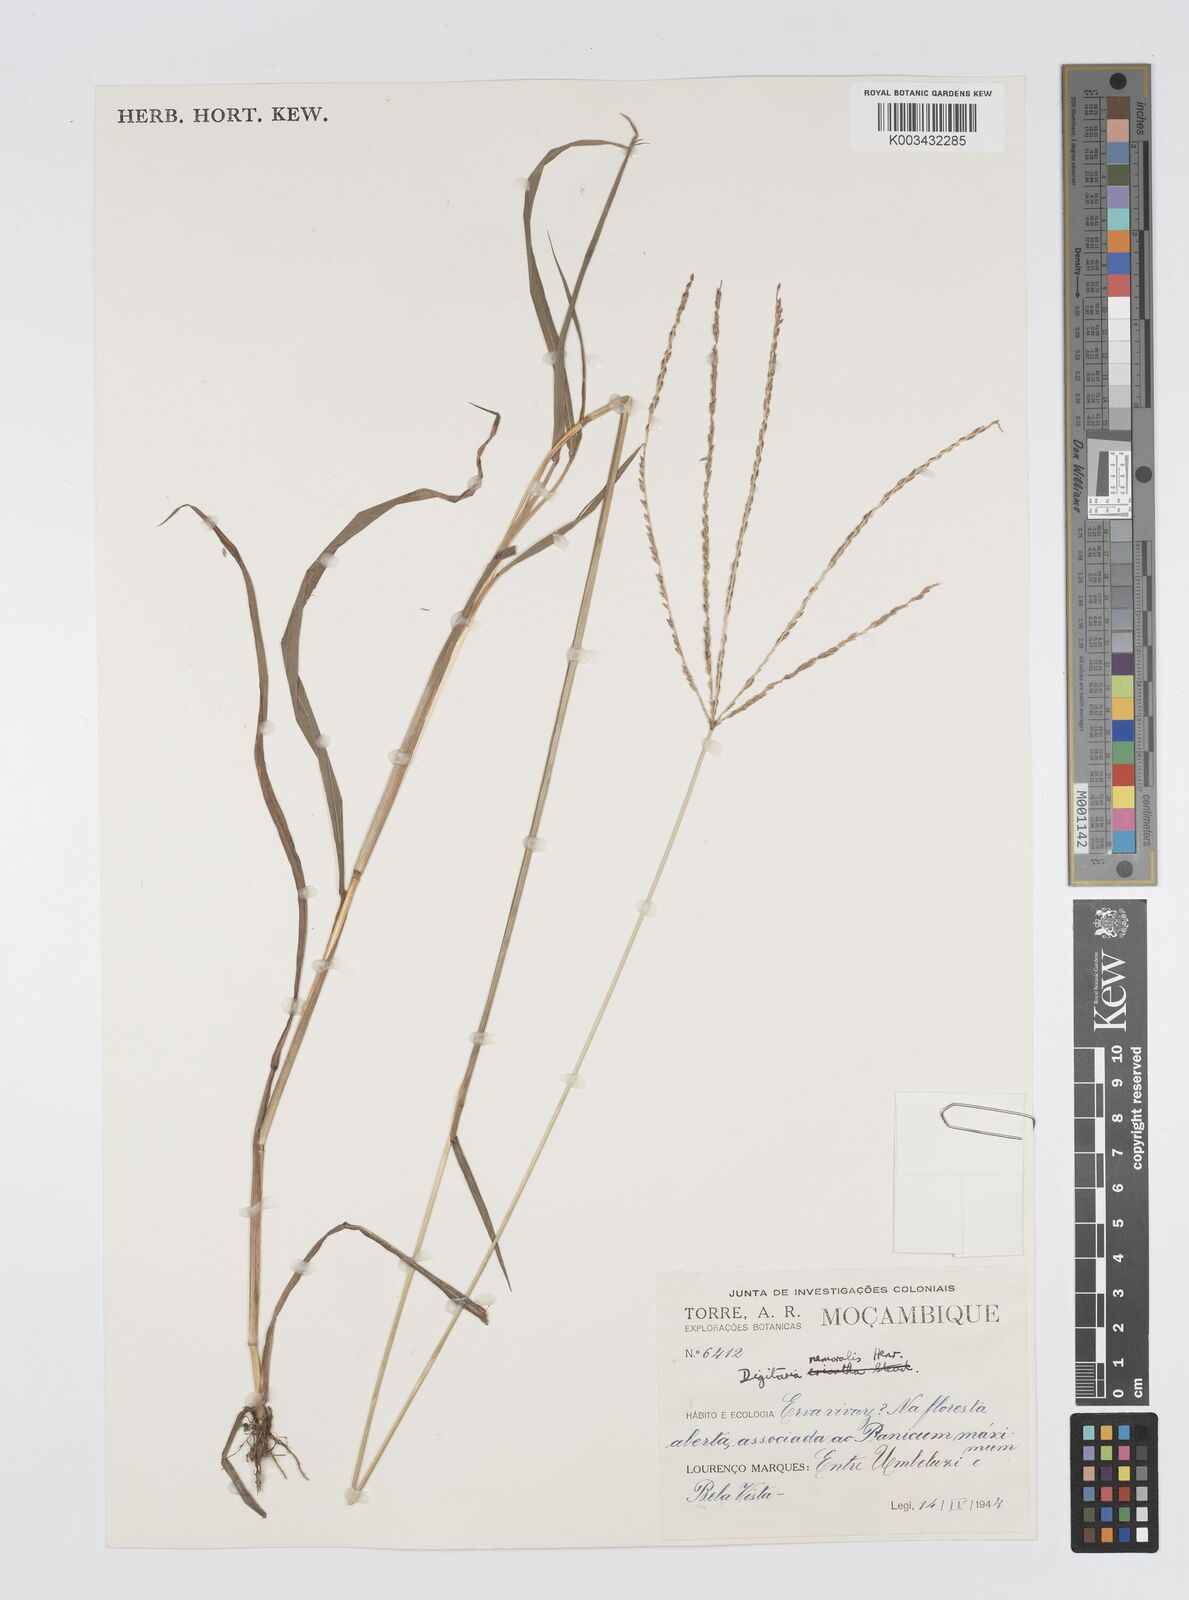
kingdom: Plantae
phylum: Tracheophyta
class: Liliopsida
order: Poales
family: Poaceae
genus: Digitaria
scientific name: Digitaria seriata
